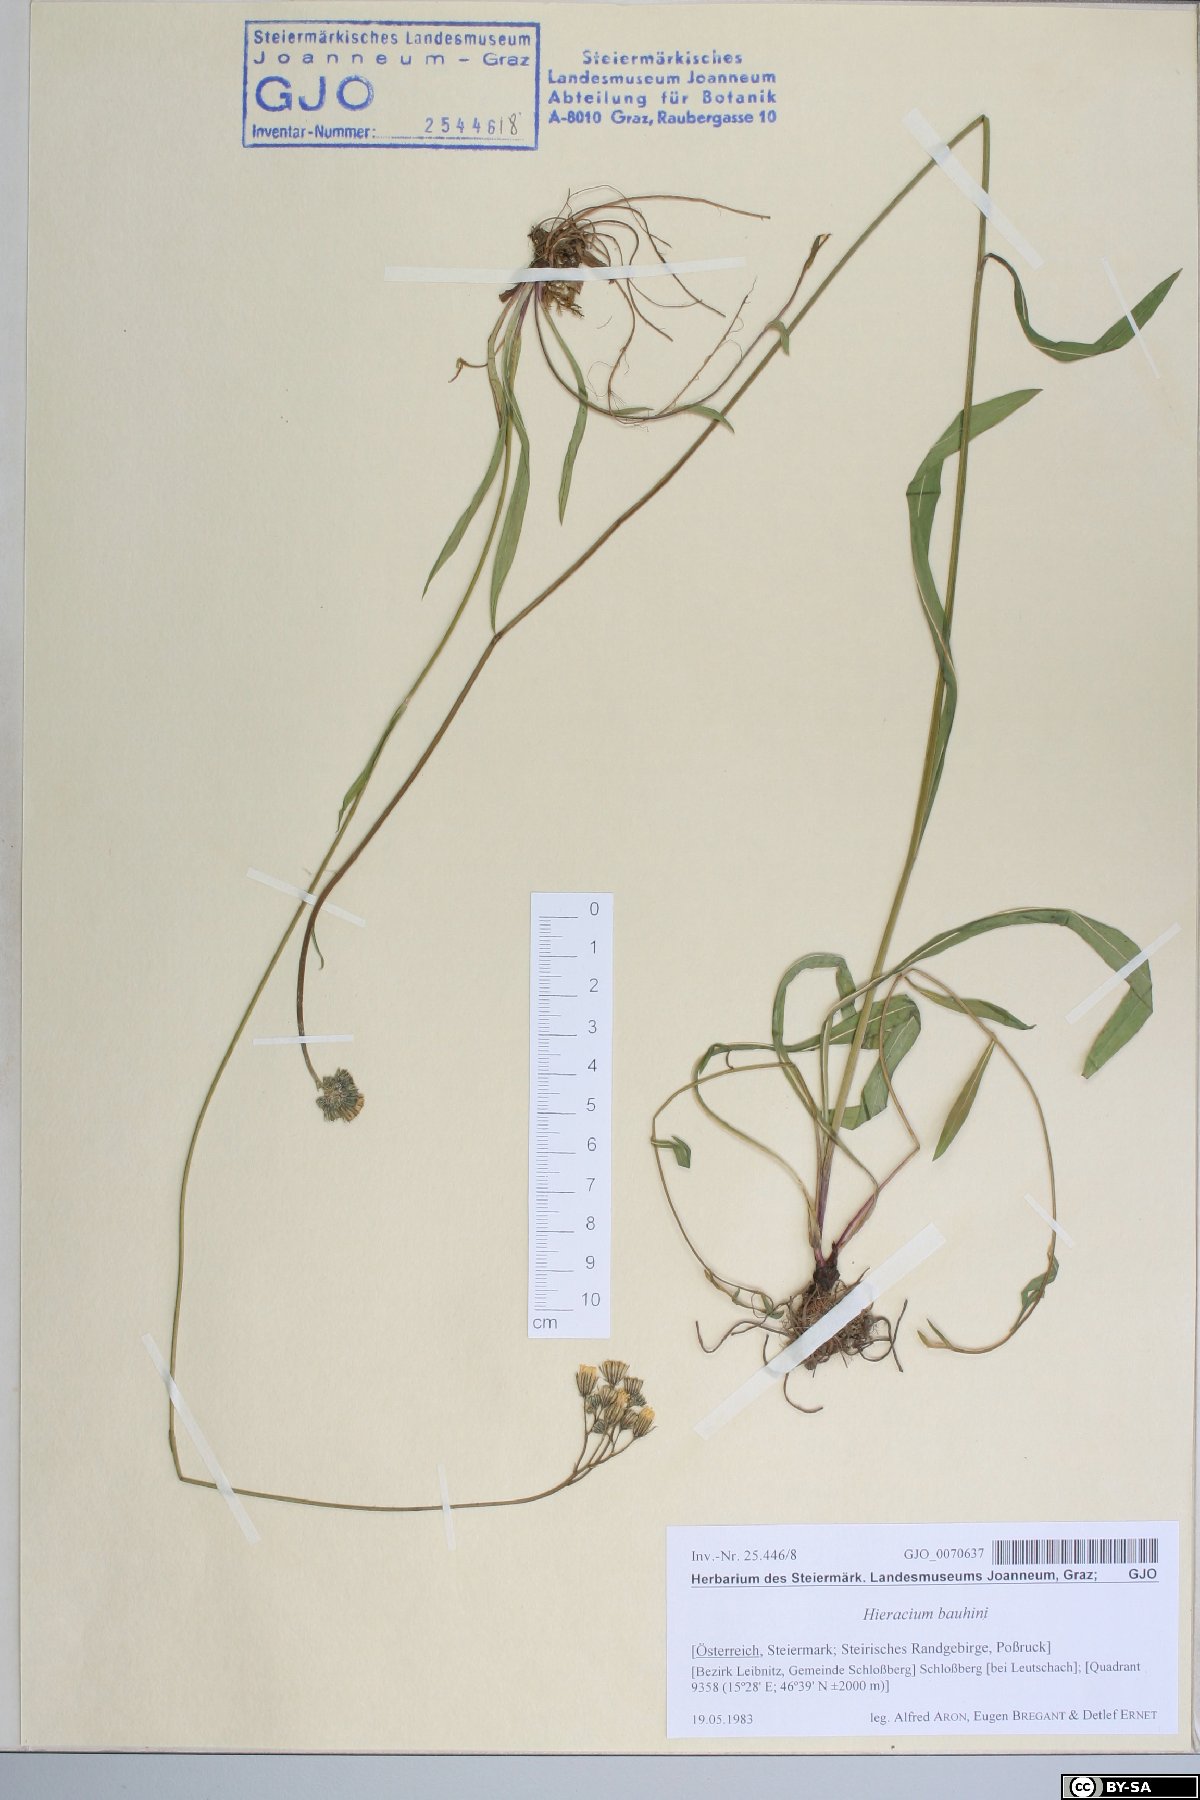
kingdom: Plantae
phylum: Tracheophyta
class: Magnoliopsida
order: Asterales
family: Asteraceae
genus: Pilosella
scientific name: Pilosella bauhini
